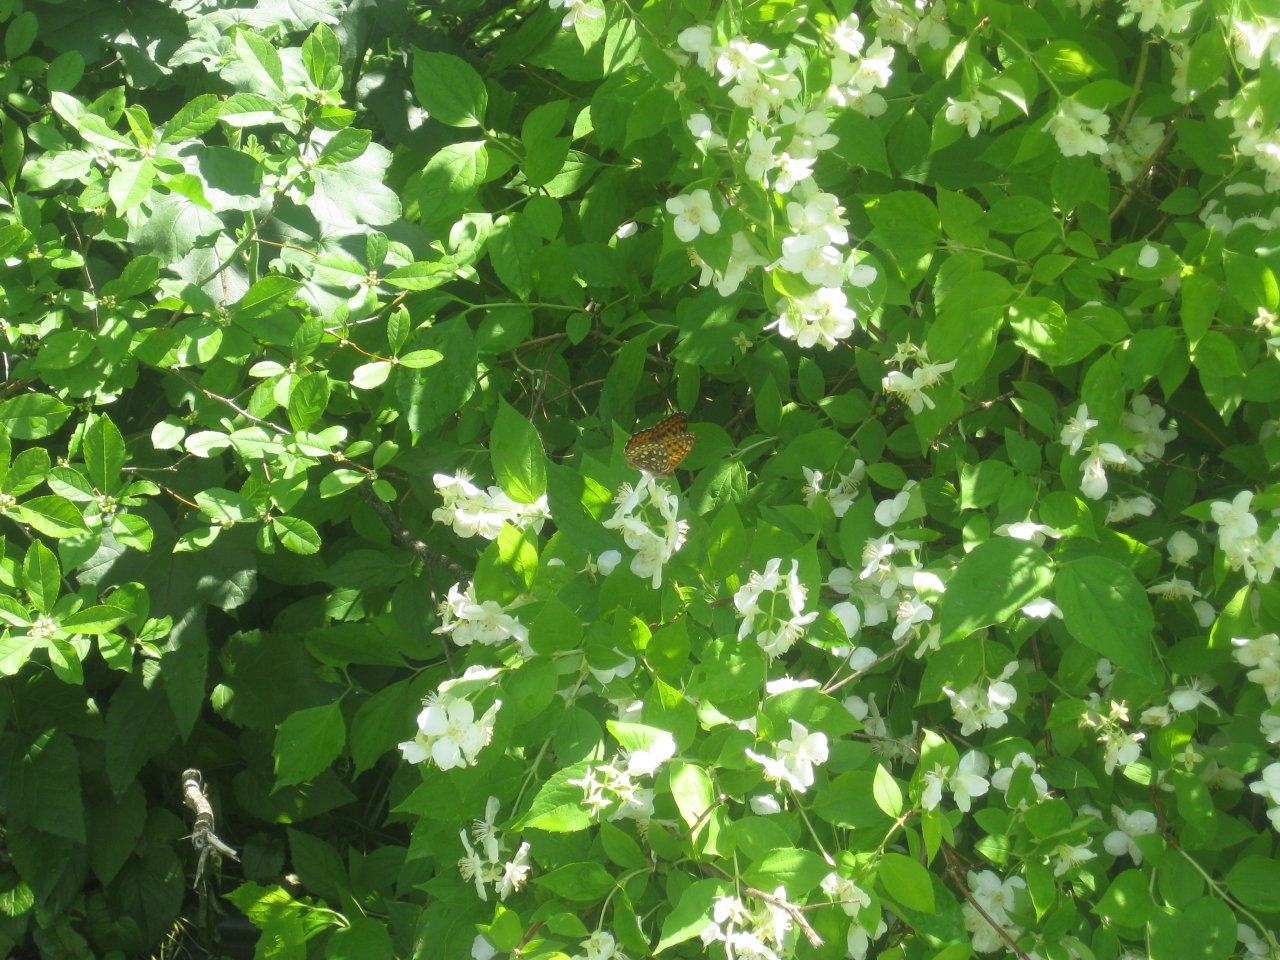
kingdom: Animalia
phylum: Arthropoda
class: Insecta
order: Lepidoptera
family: Nymphalidae
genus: Speyeria
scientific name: Speyeria atlantis
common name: Atlantis Fritillary
